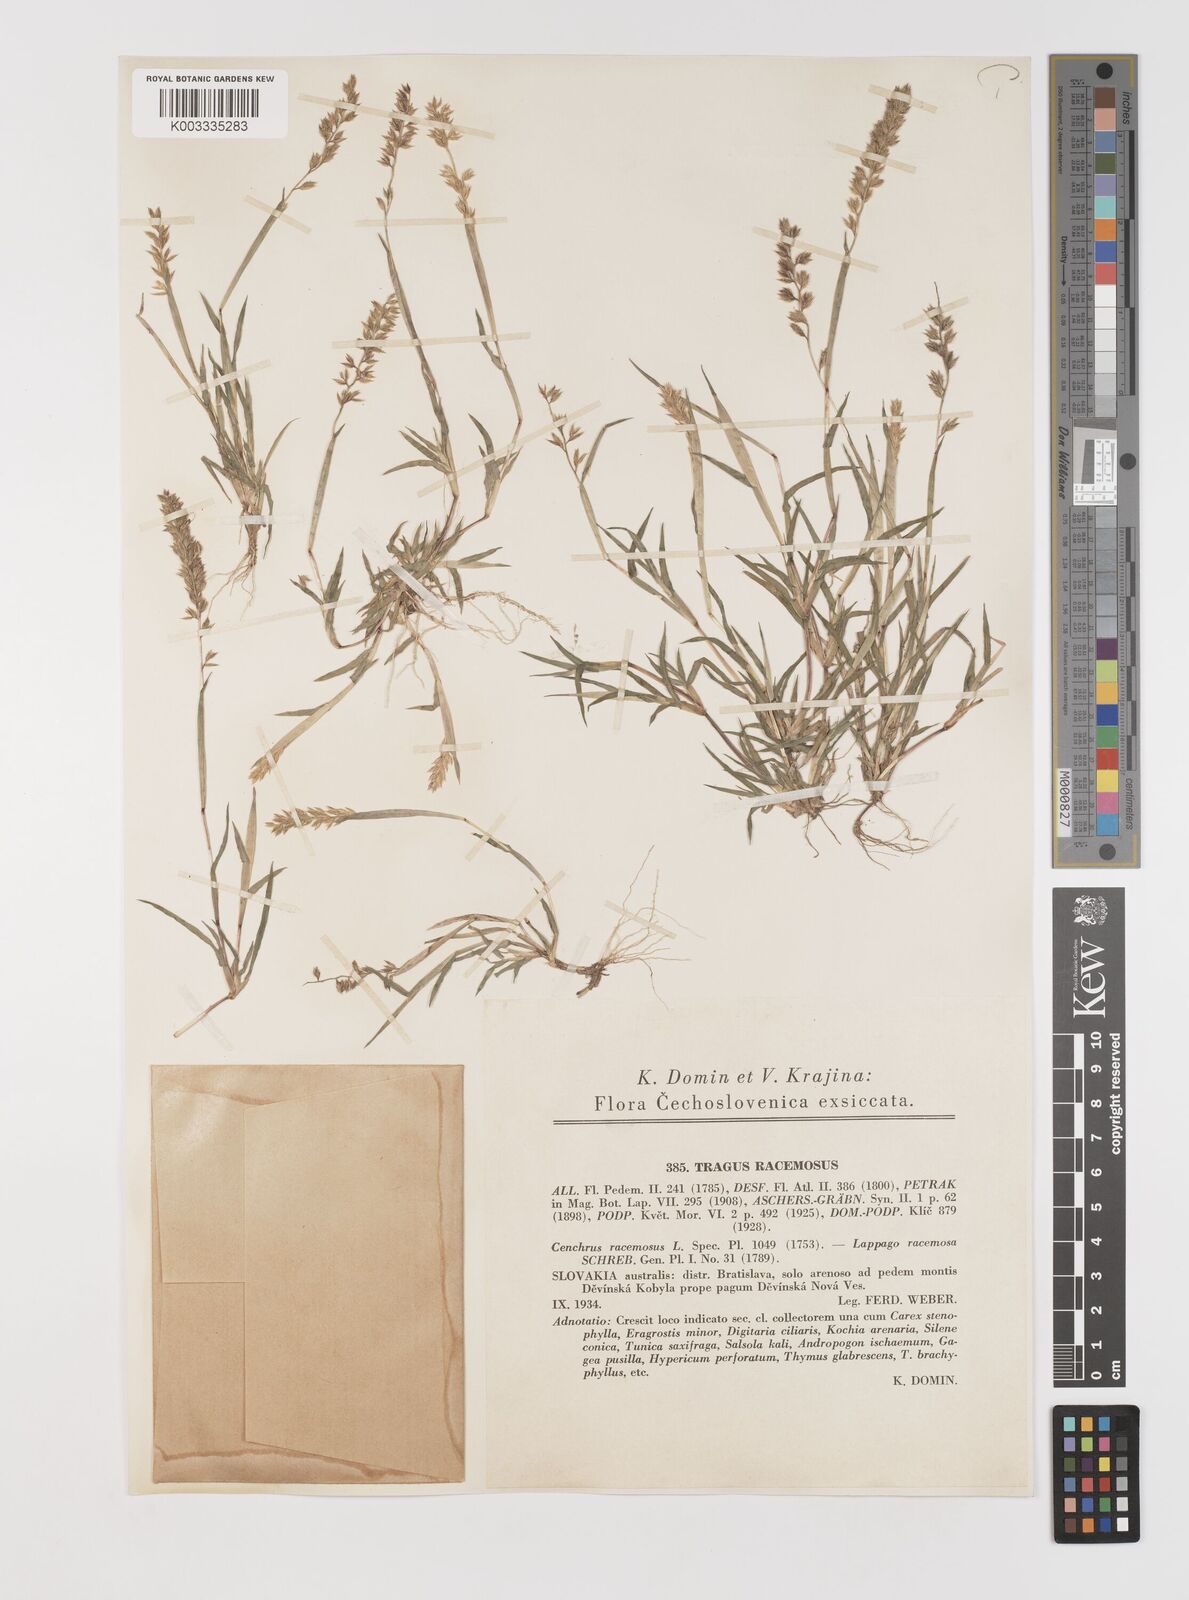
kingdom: Plantae
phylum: Tracheophyta
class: Liliopsida
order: Poales
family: Poaceae
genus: Tragus
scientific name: Tragus racemosus
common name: European bur-grass
